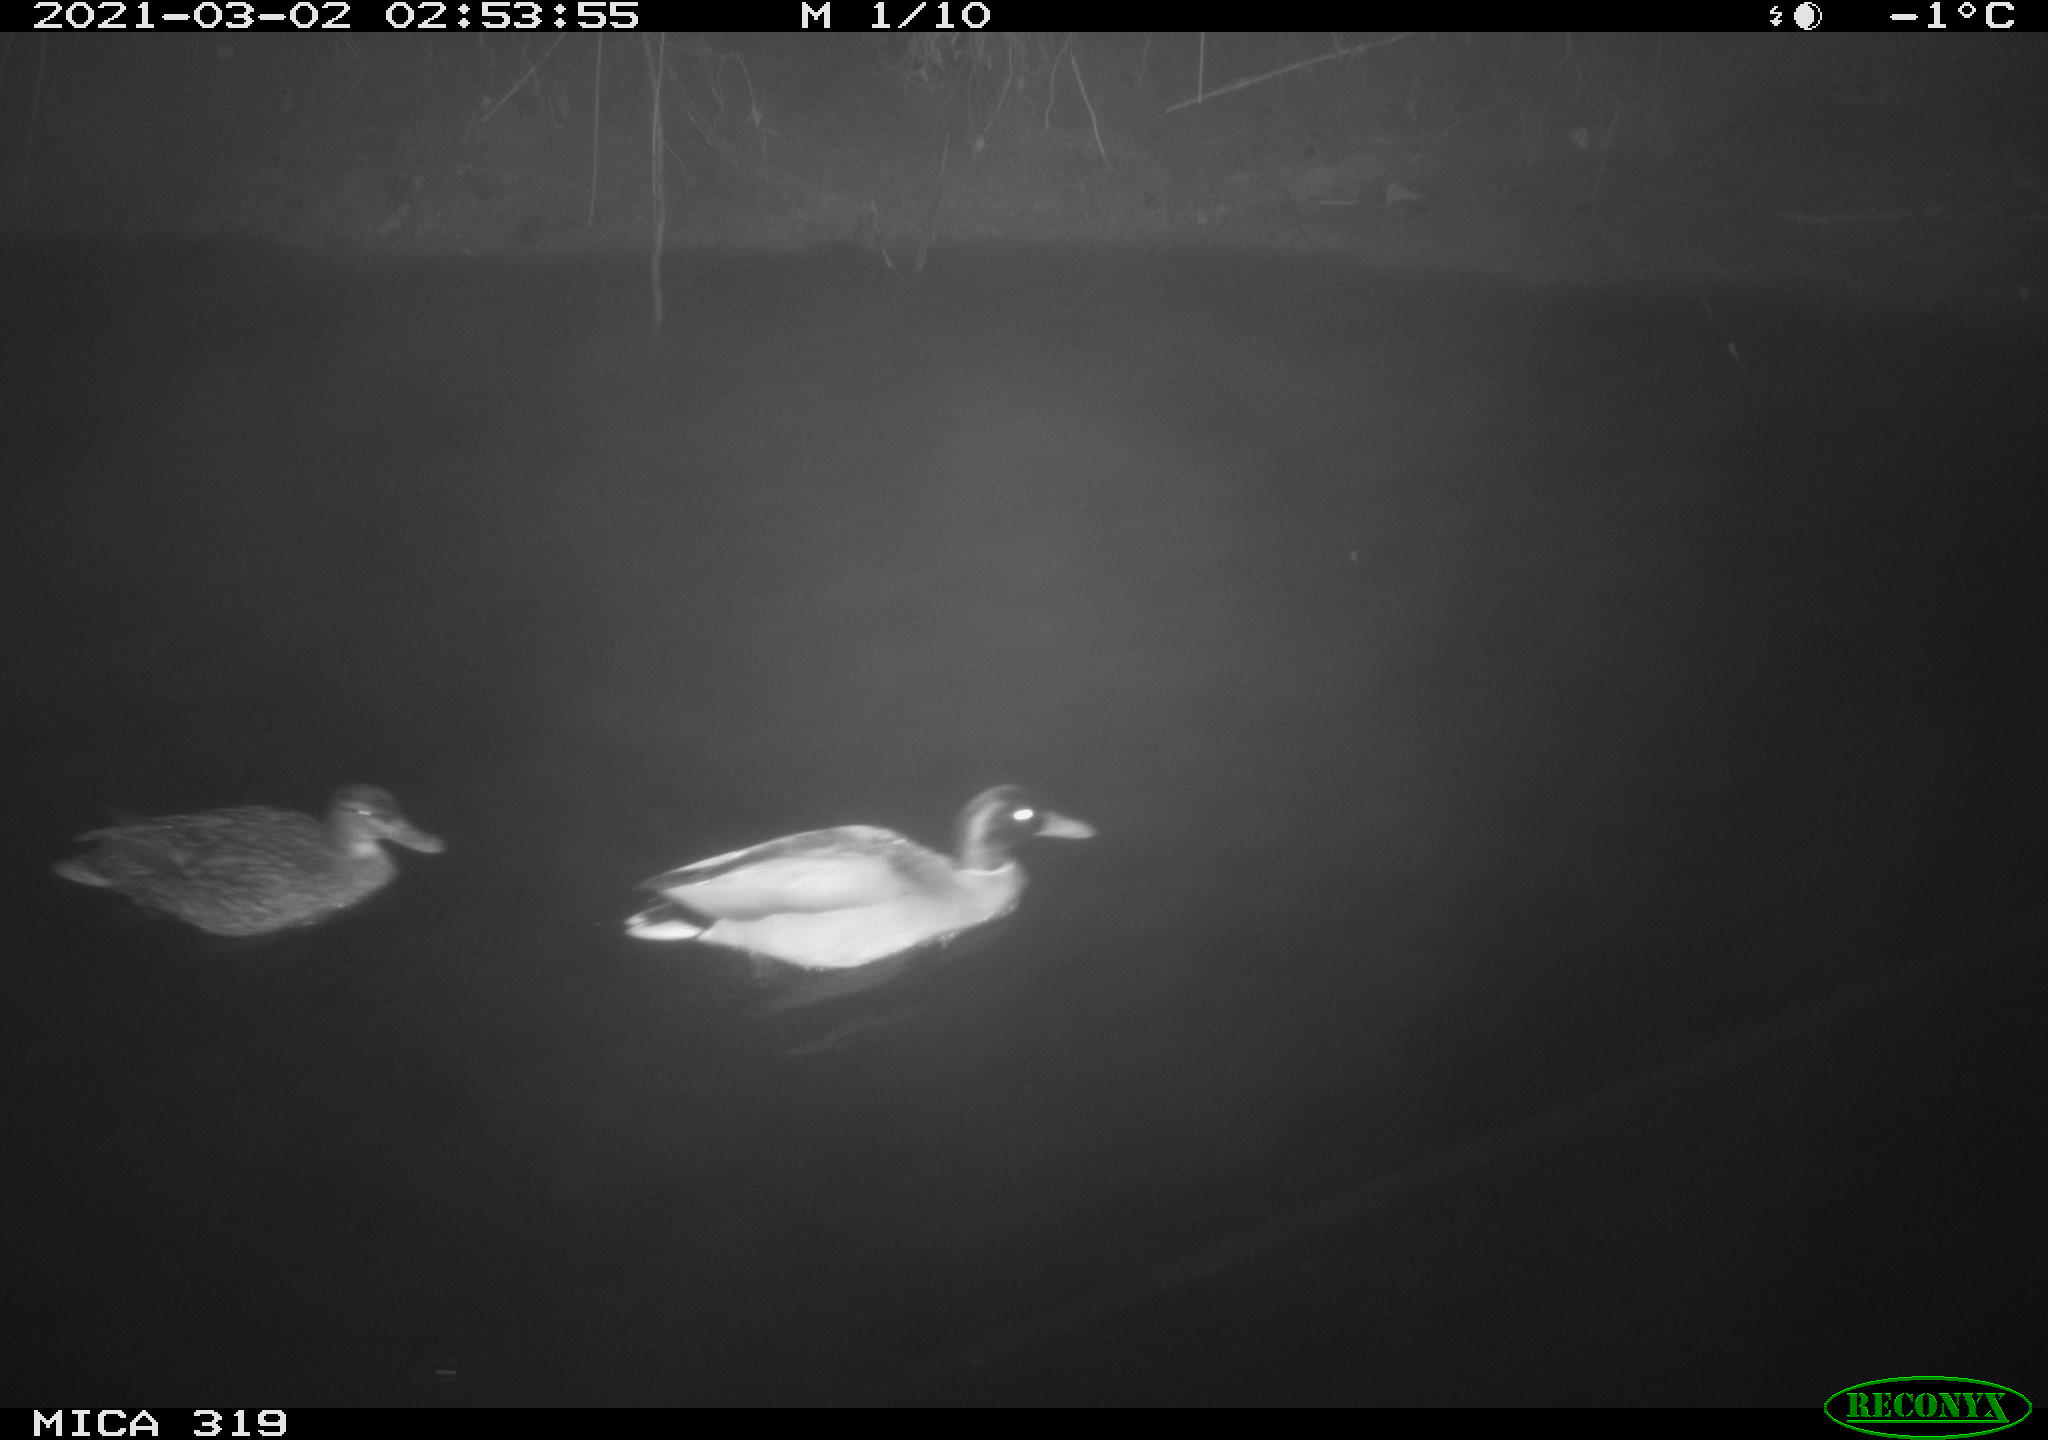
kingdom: Animalia
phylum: Chordata
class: Aves
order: Anseriformes
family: Anatidae
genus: Anas
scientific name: Anas platyrhynchos
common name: Mallard
